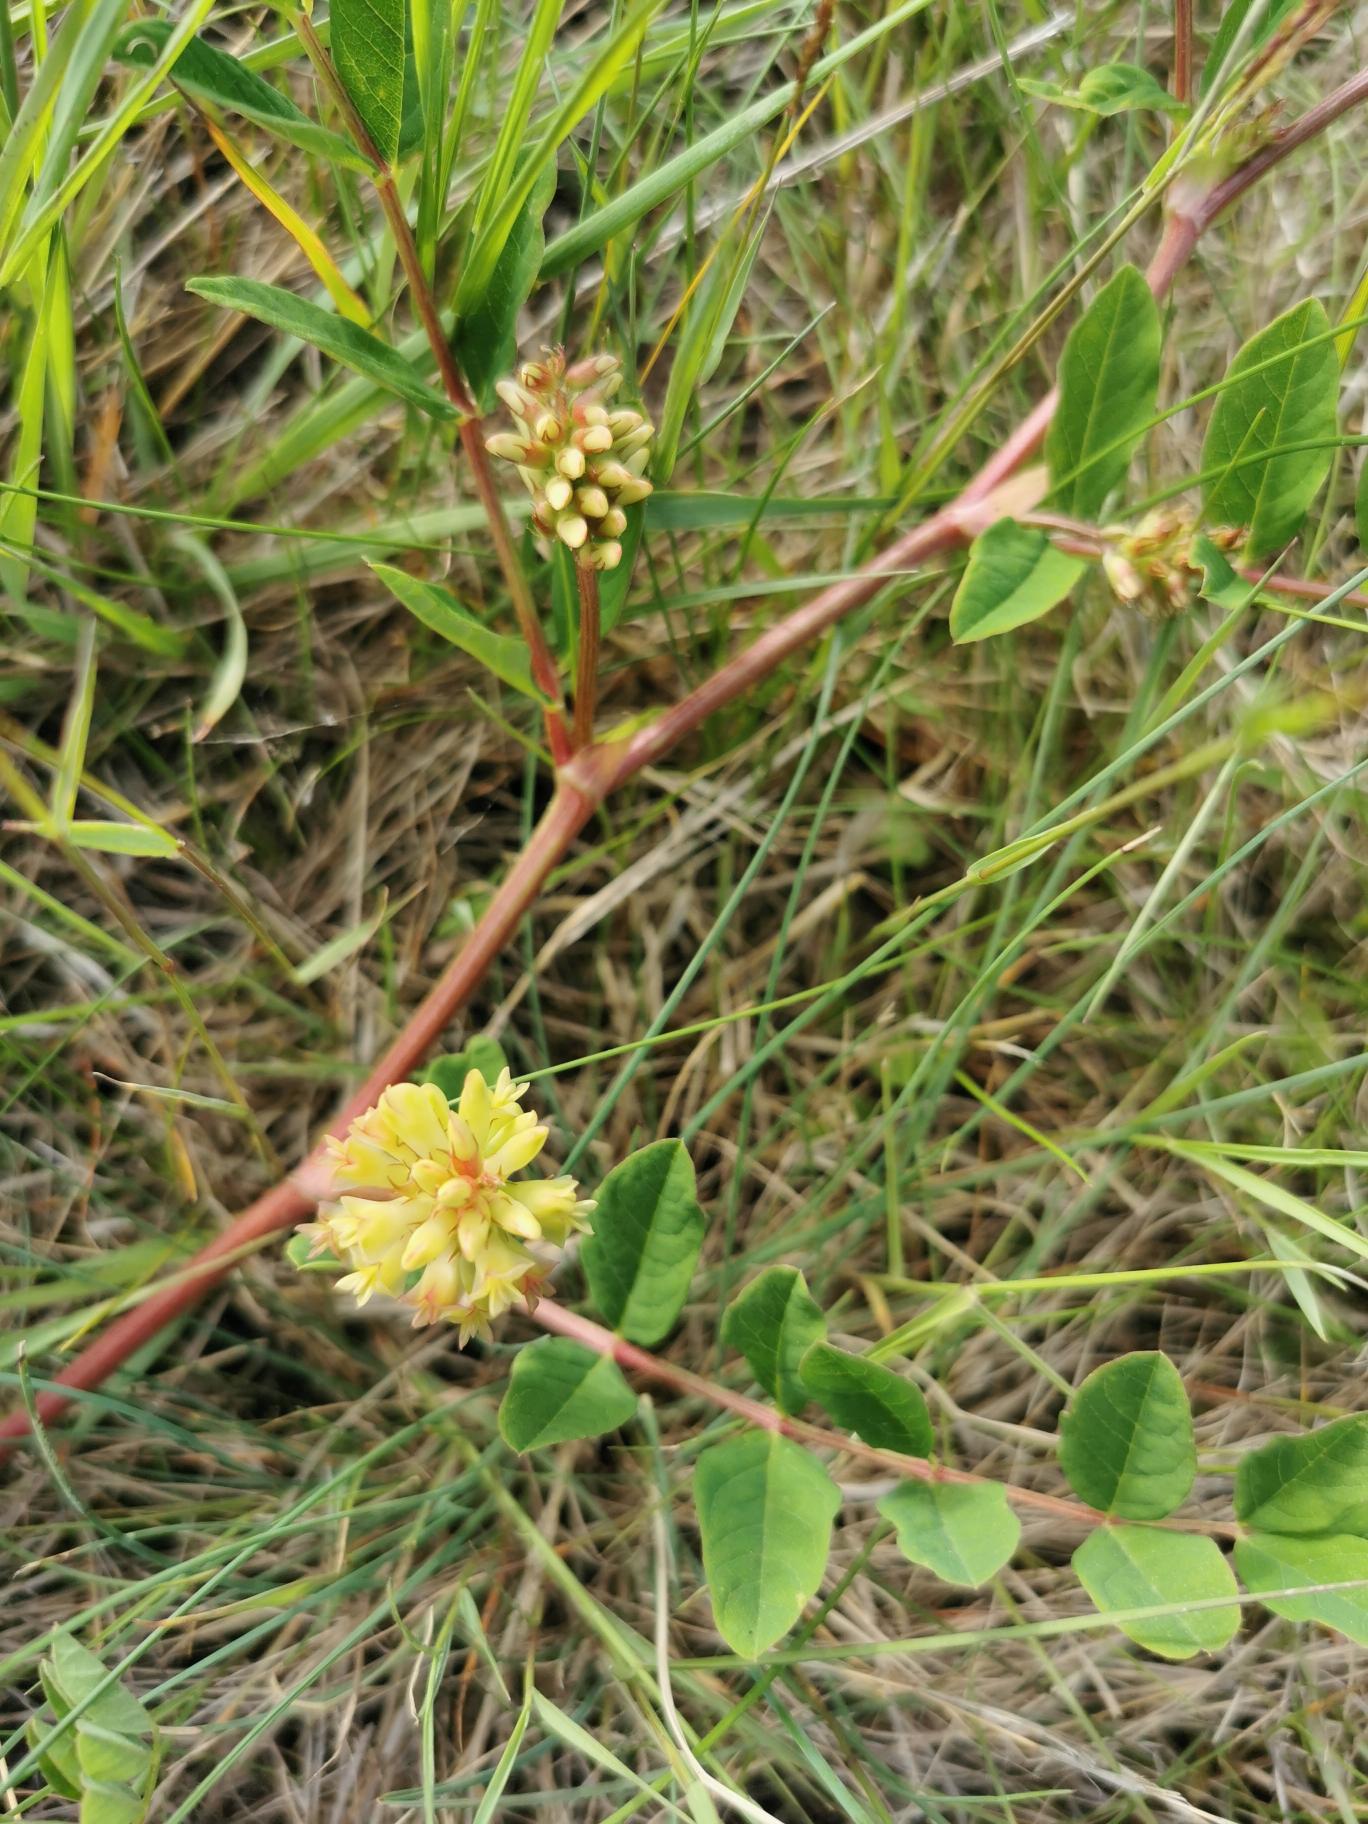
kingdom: Plantae
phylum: Tracheophyta
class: Magnoliopsida
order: Fabales
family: Fabaceae
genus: Astragalus
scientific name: Astragalus glycyphyllos
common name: Sød astragel
